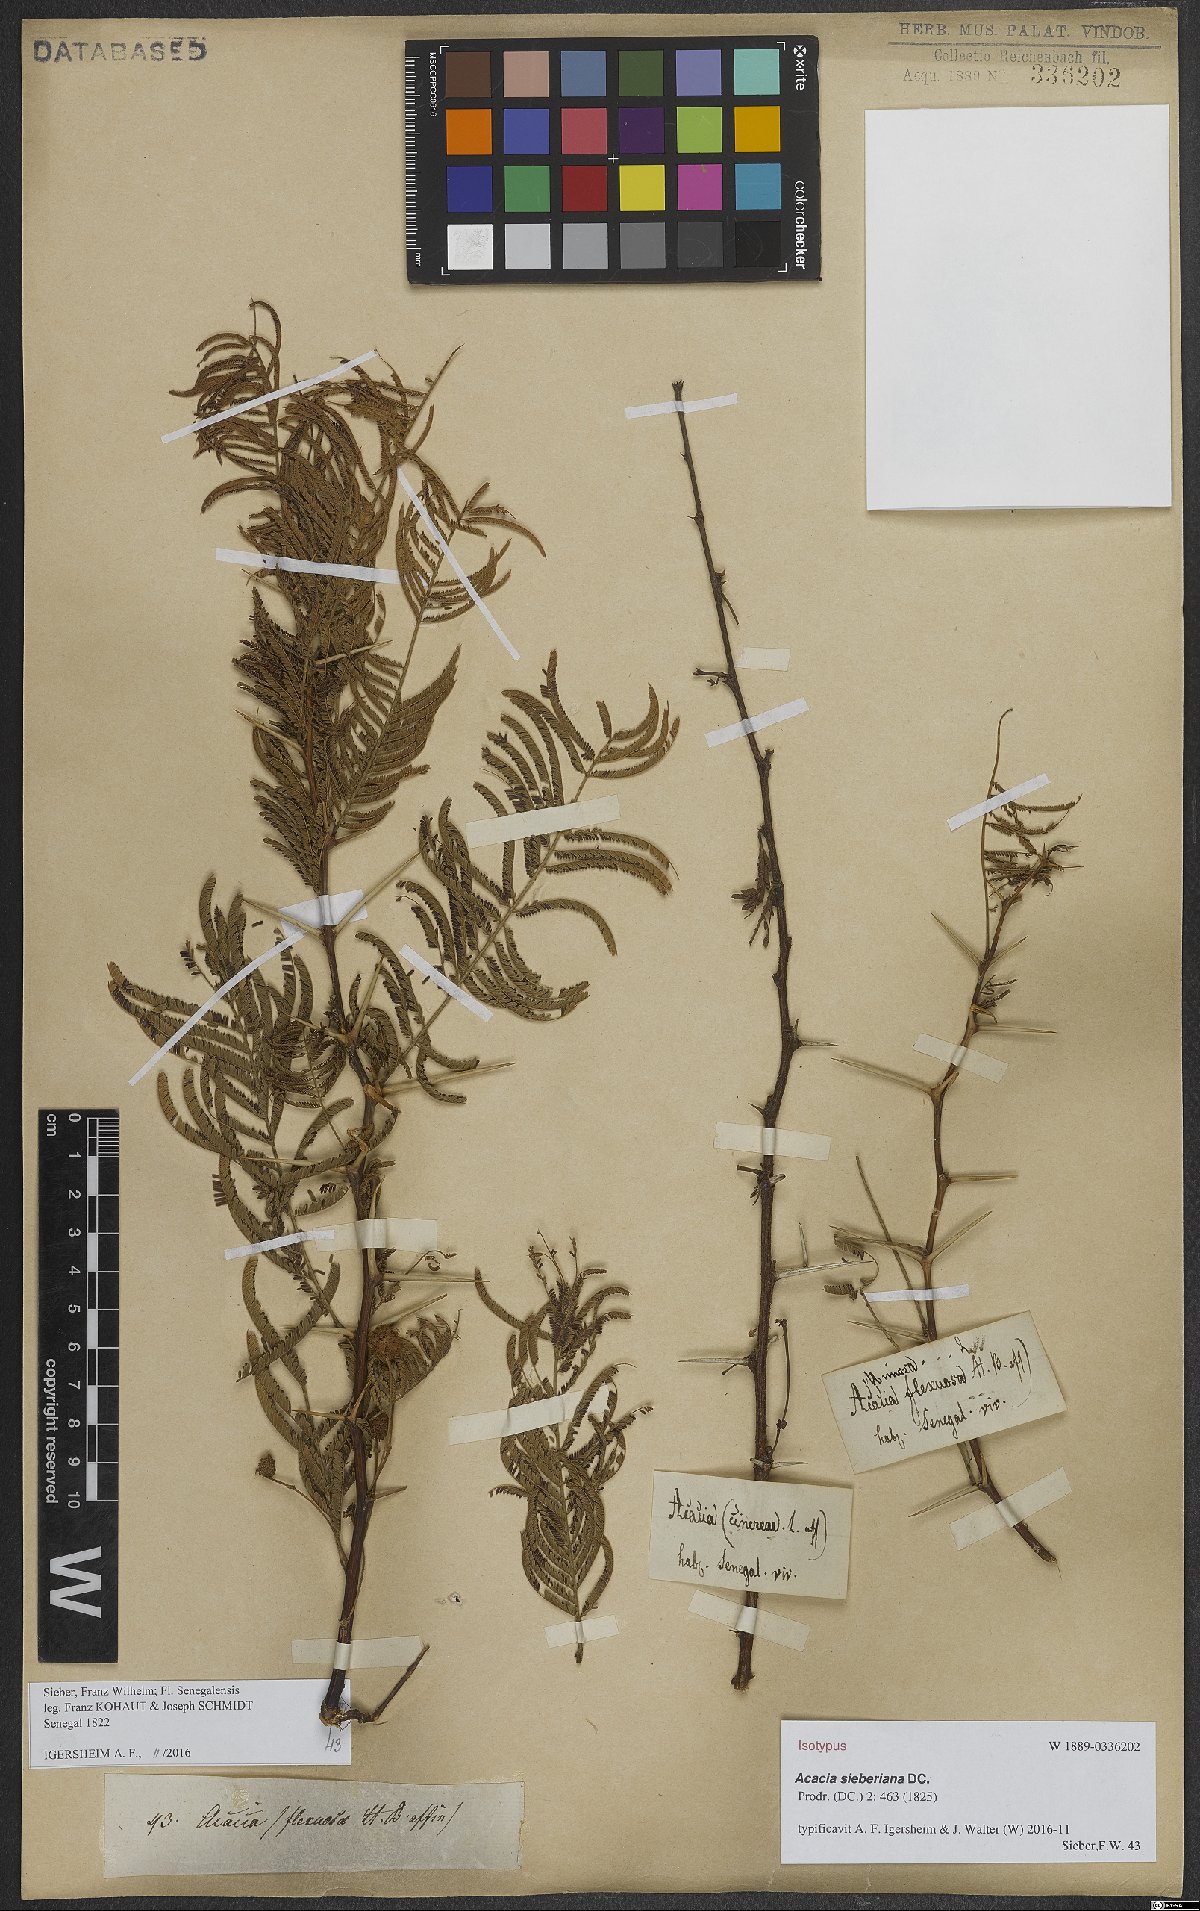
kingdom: Plantae
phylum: Tracheophyta
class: Magnoliopsida
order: Fabales
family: Fabaceae
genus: Vachellia
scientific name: Vachellia sieberiana
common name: Flat-topped thorn
